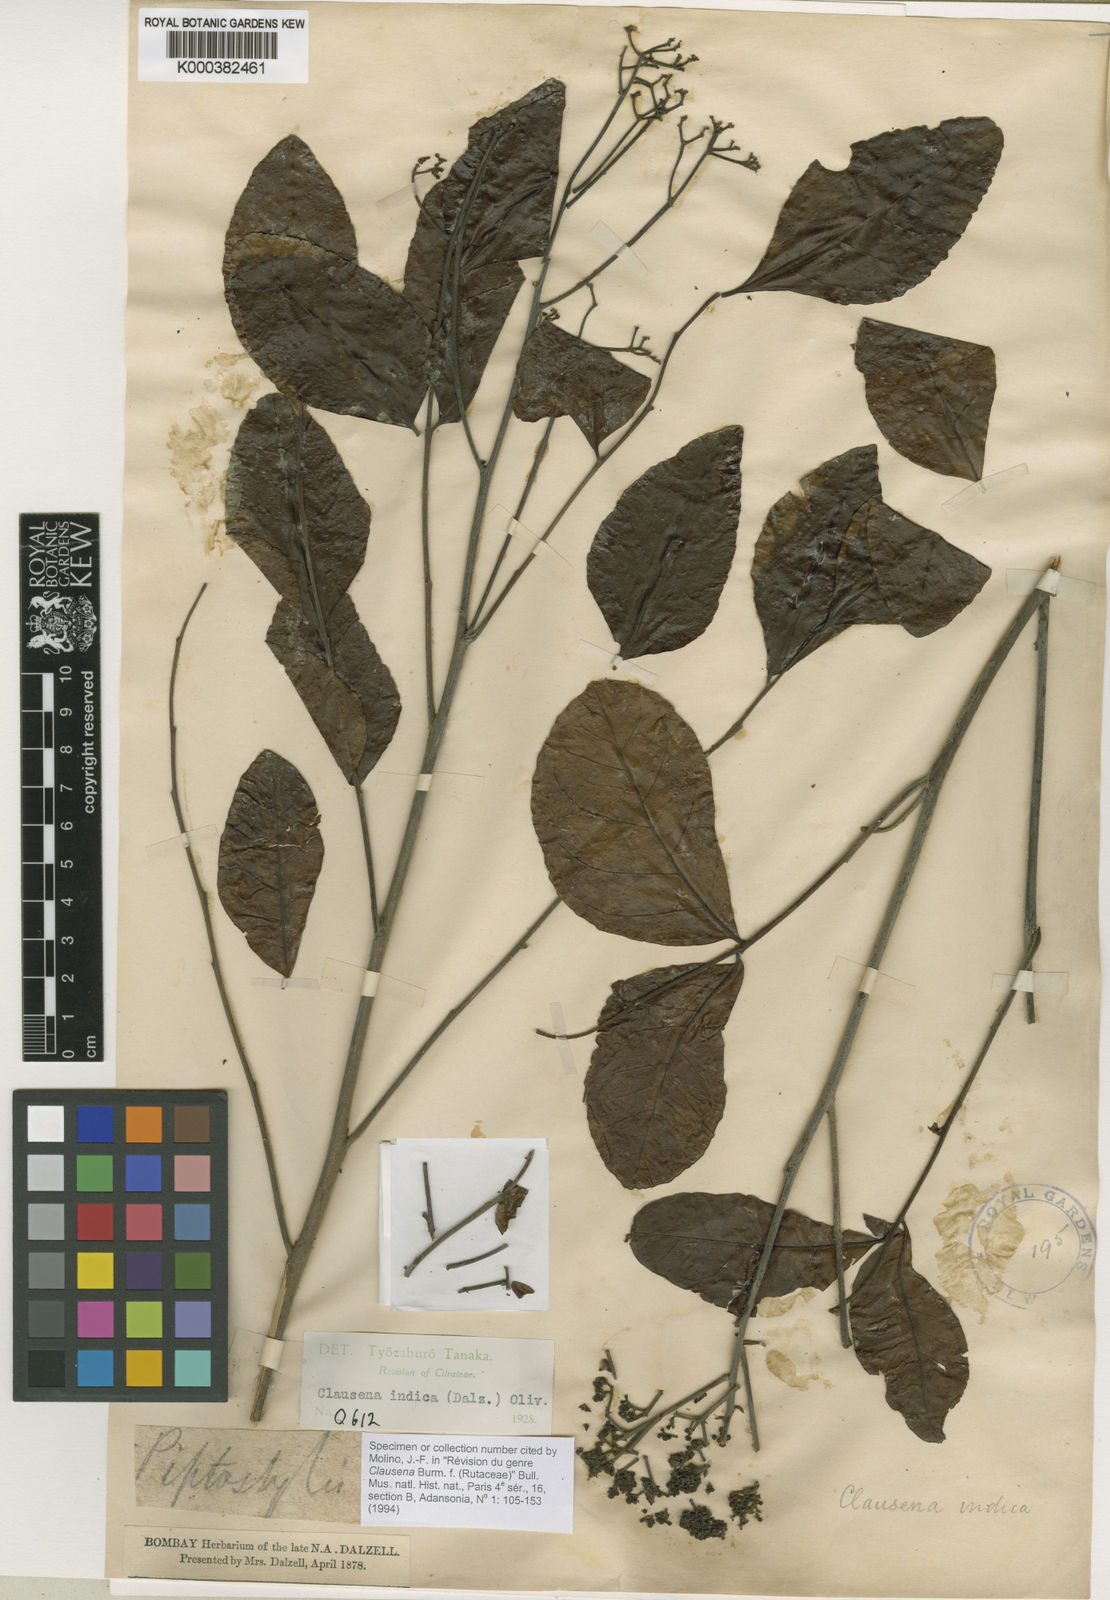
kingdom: Plantae
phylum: Tracheophyta
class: Magnoliopsida
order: Sapindales
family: Rutaceae
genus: Clausena
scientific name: Clausena indica
